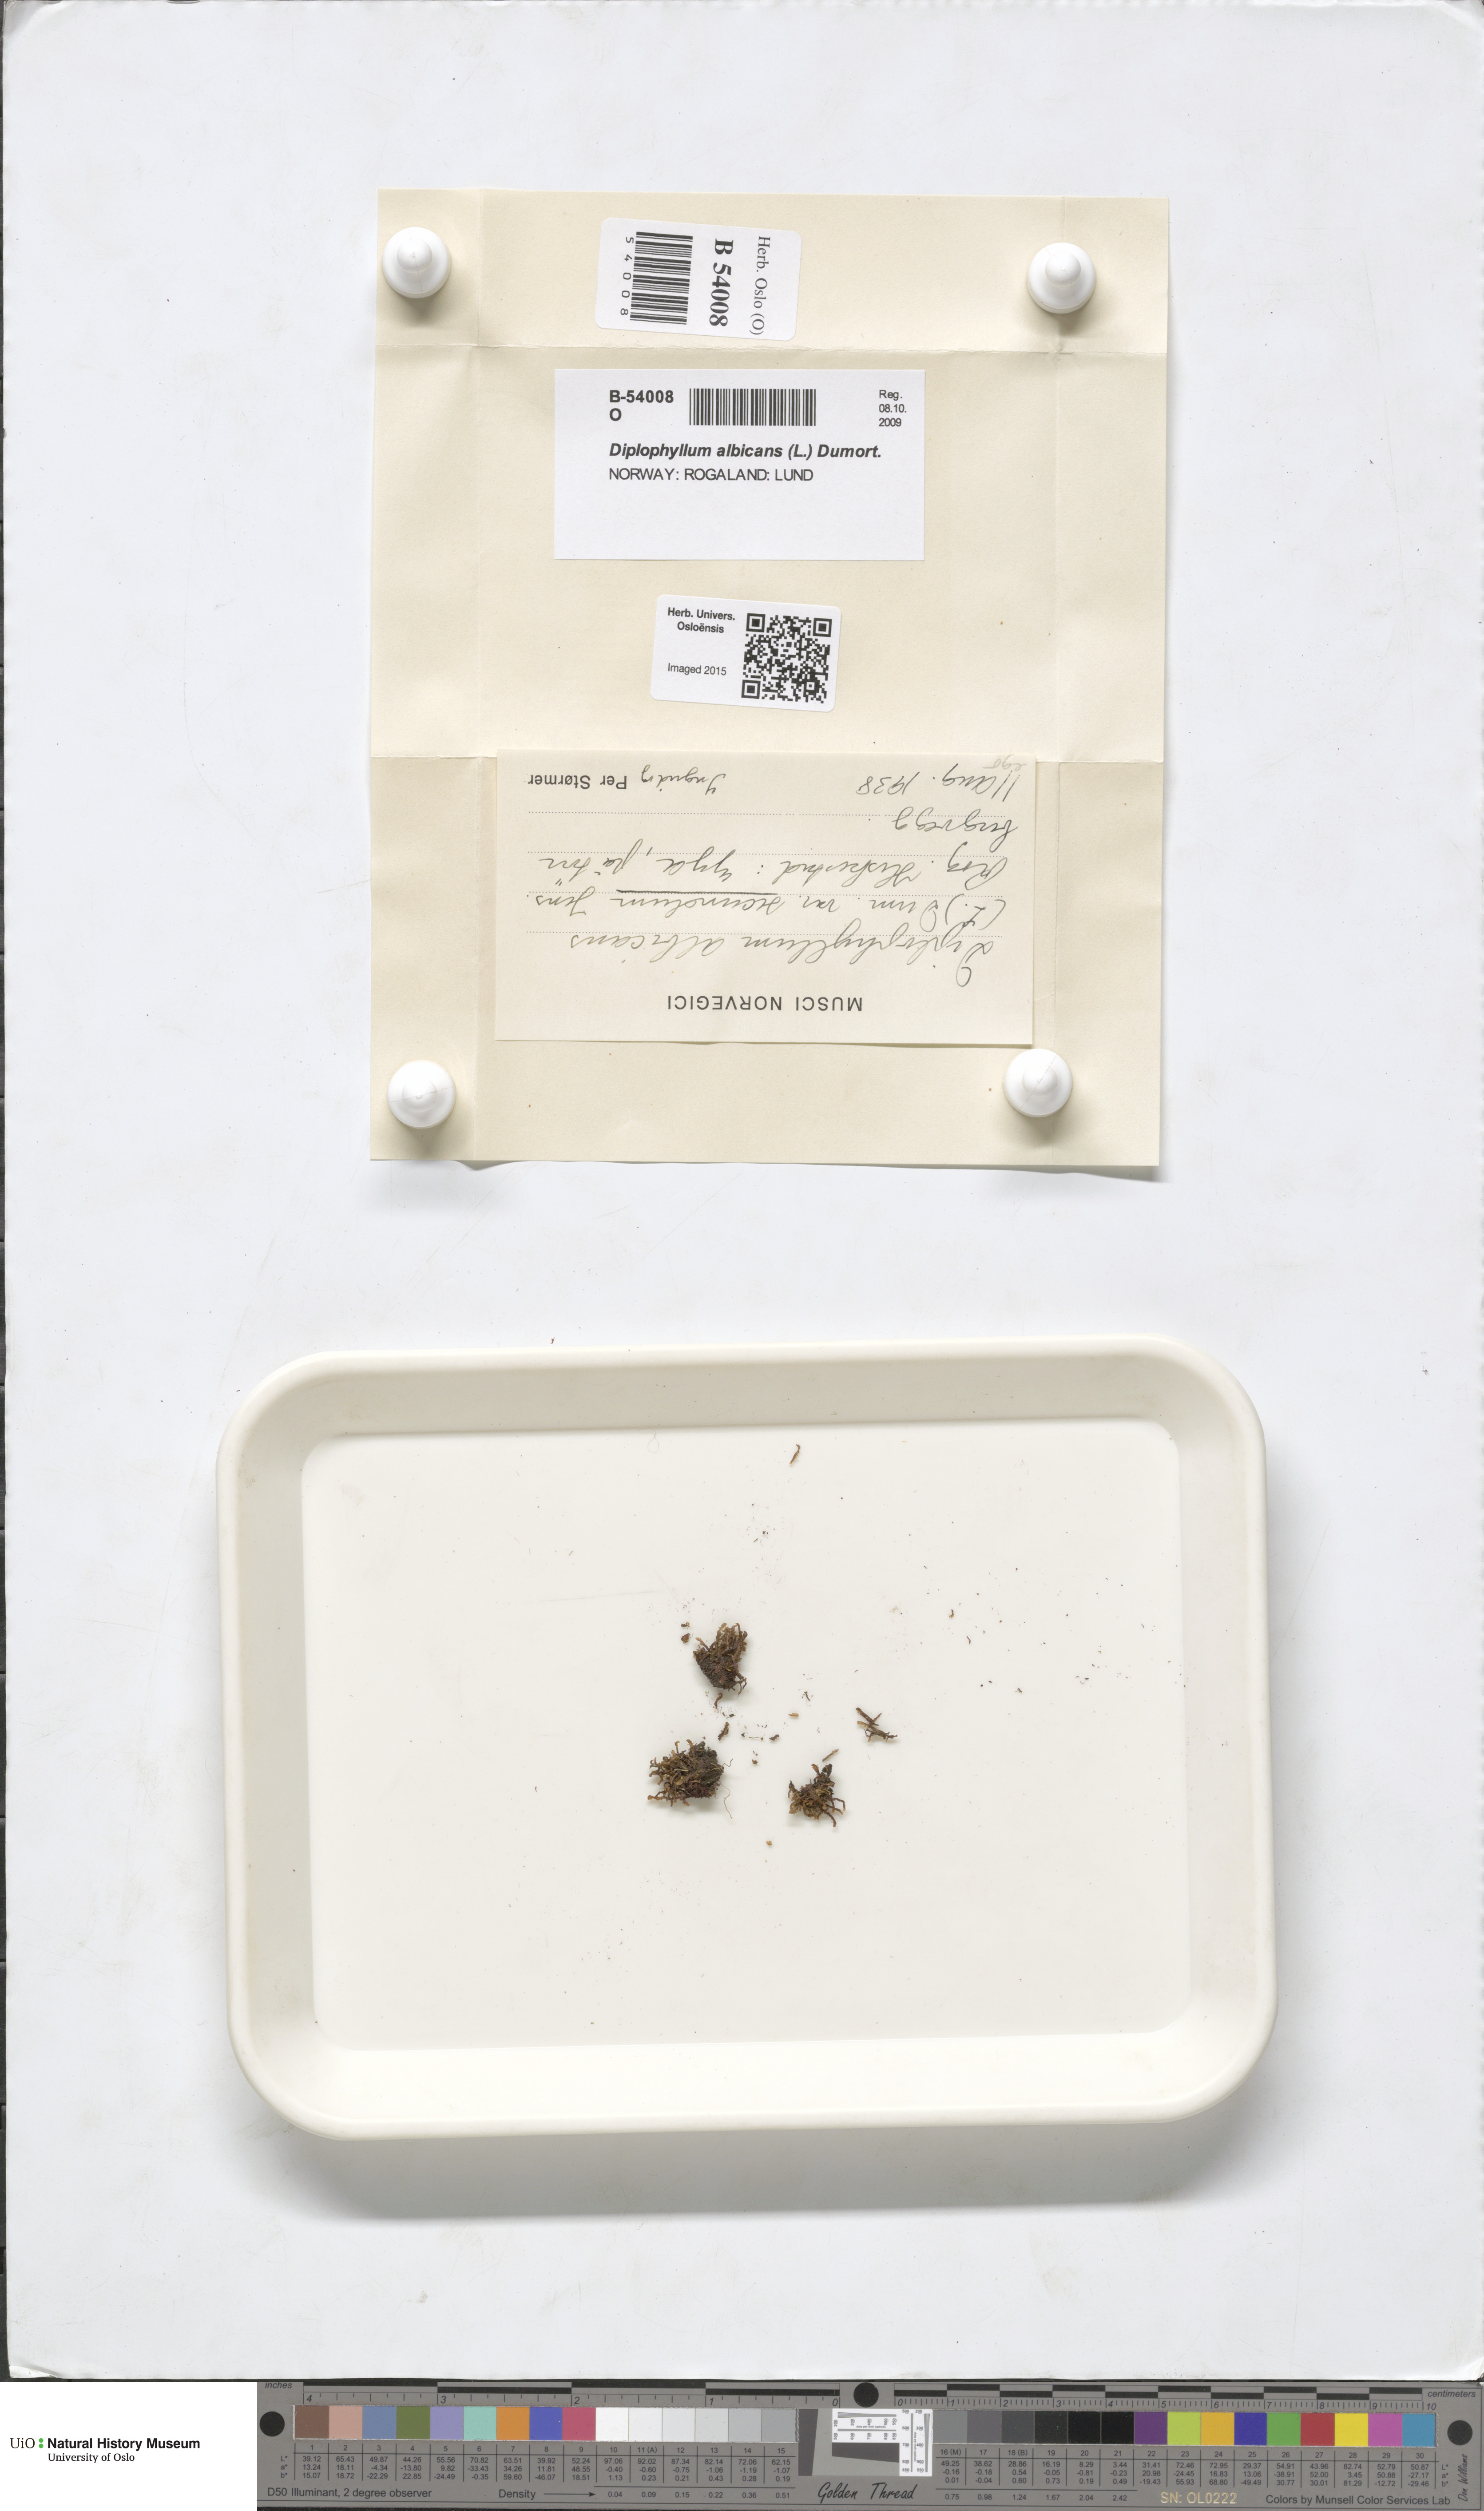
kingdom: Plantae
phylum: Marchantiophyta
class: Jungermanniopsida
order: Jungermanniales
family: Scapaniaceae
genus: Diplophyllum
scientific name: Diplophyllum albicans
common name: White earwort
